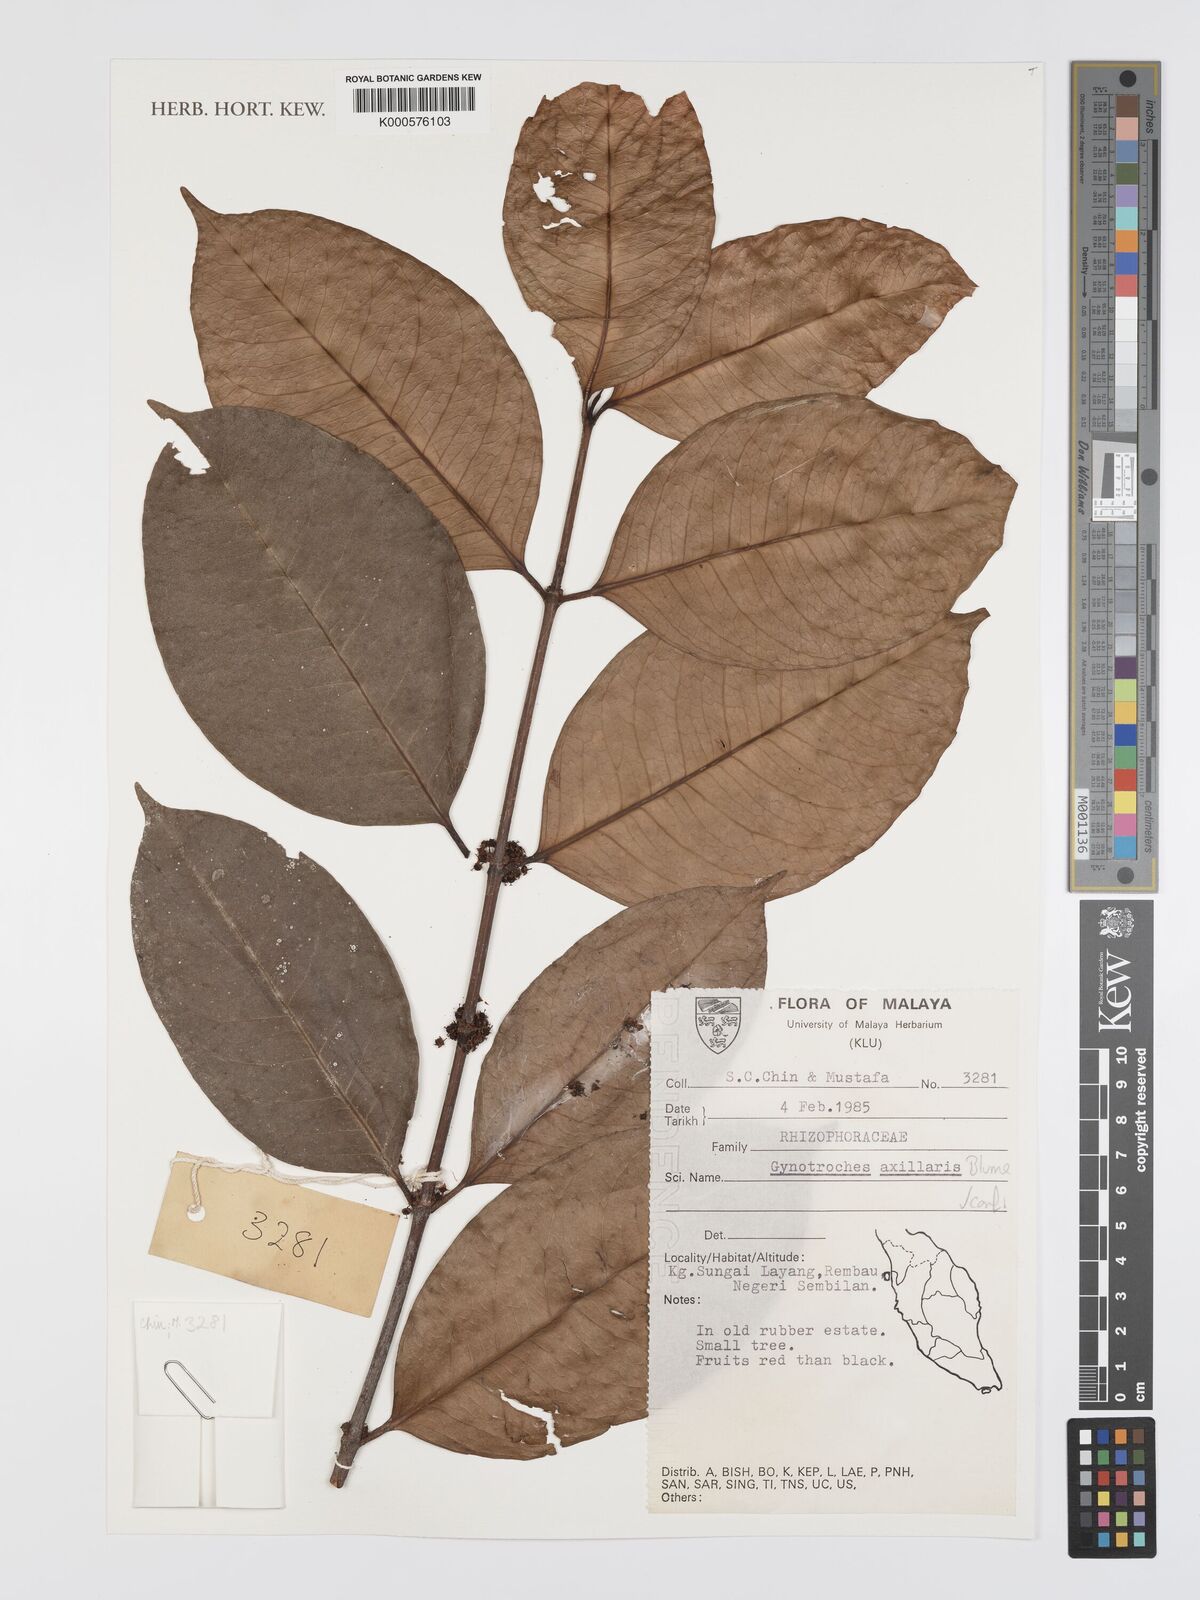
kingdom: Plantae
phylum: Tracheophyta
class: Magnoliopsida
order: Malpighiales
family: Rhizophoraceae
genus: Gynotroches
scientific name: Gynotroches axillaris
